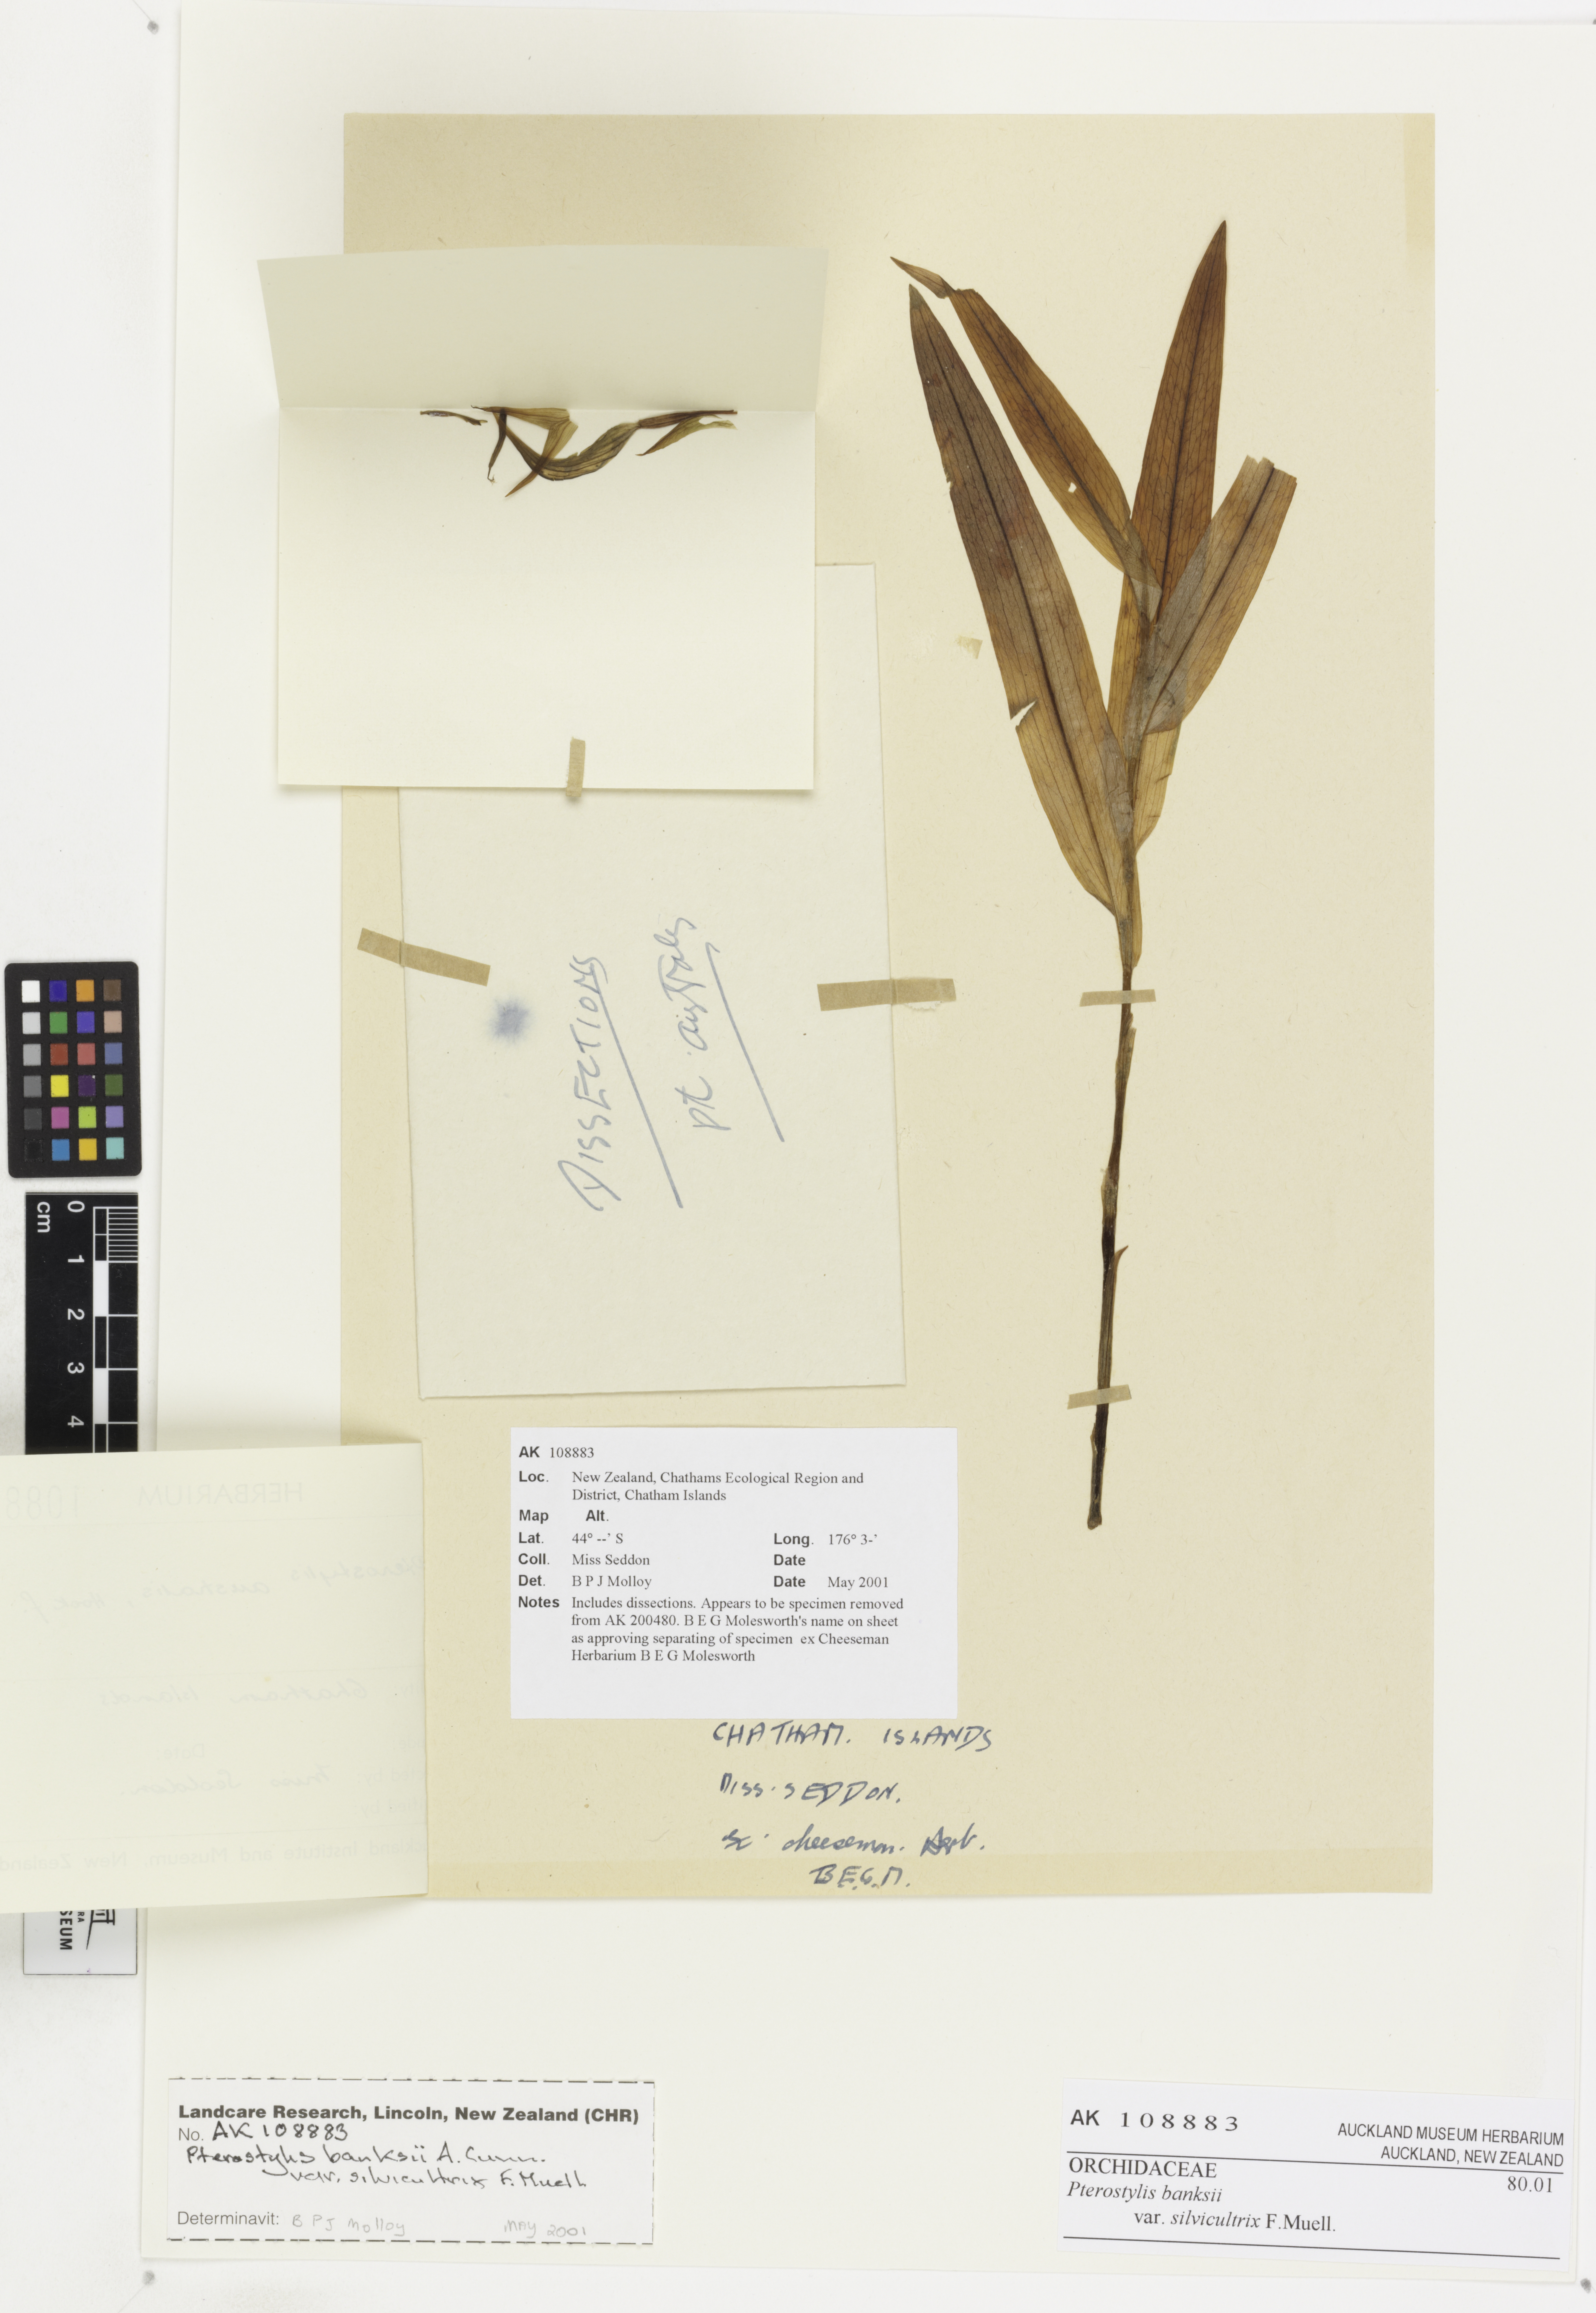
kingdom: Plantae
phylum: Tracheophyta
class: Liliopsida
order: Asparagales
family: Orchidaceae
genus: Pterostylis
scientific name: Pterostylis silvicultrix
